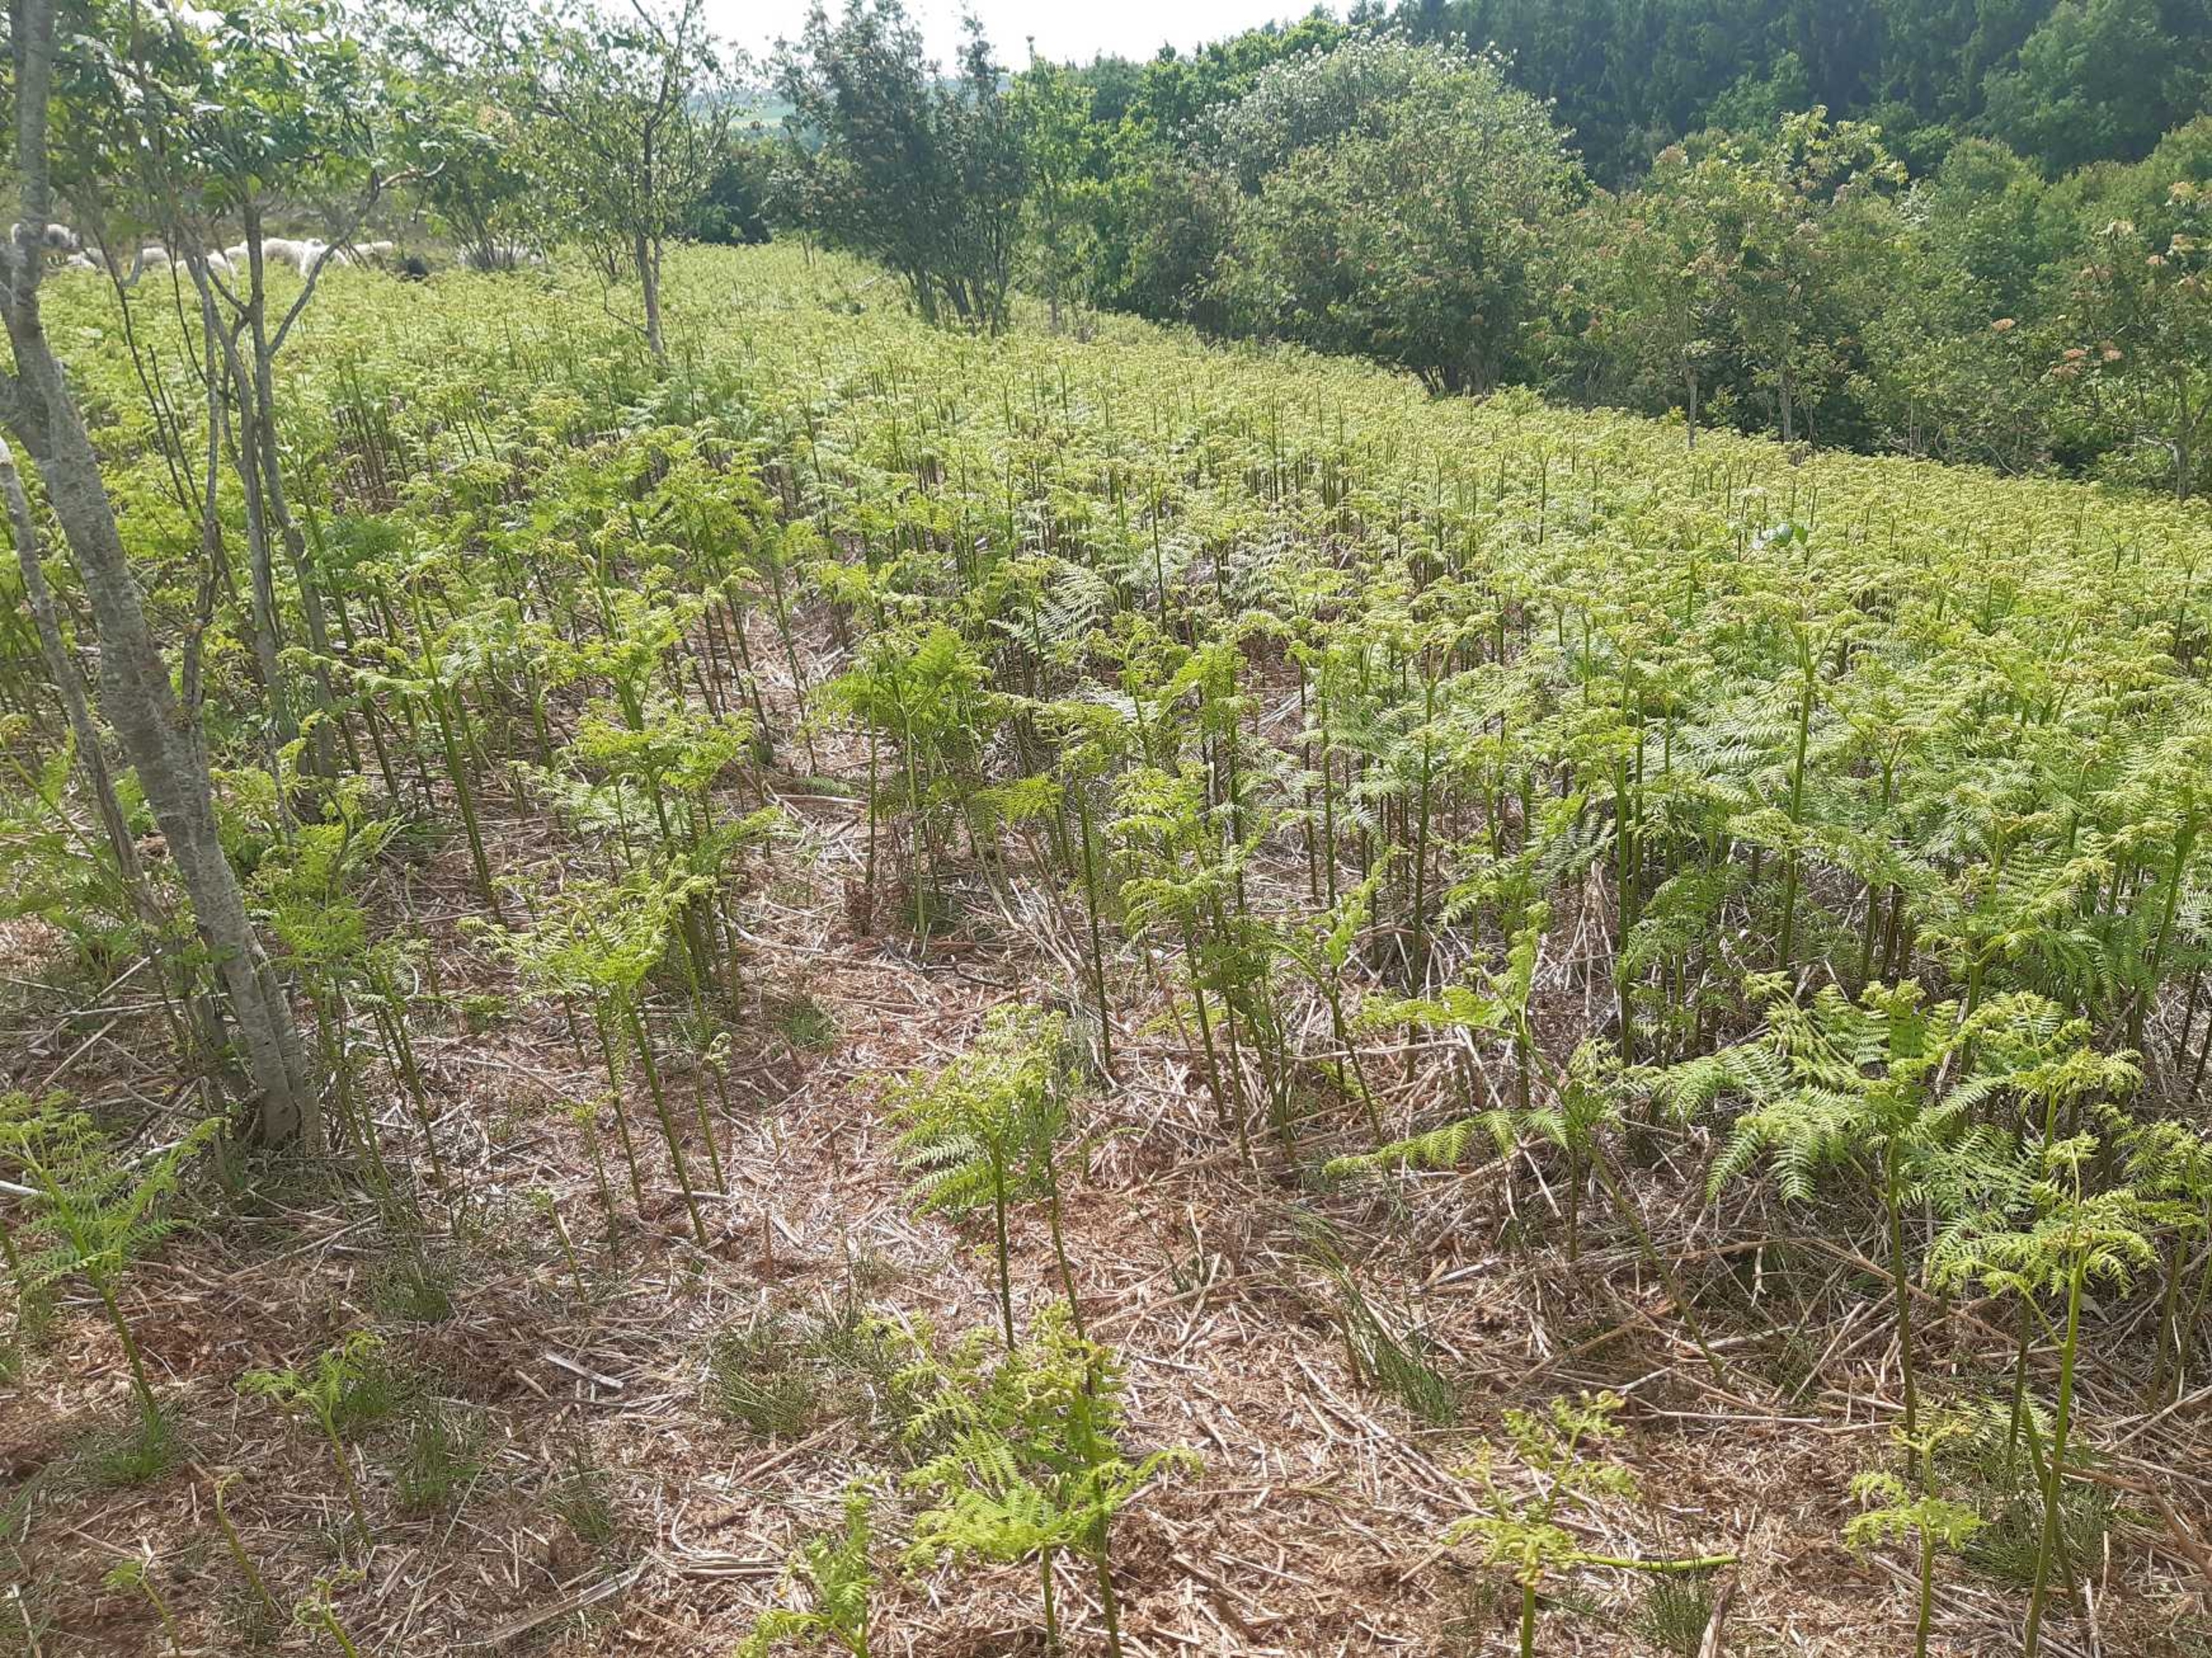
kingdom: Plantae
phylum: Tracheophyta
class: Polypodiopsida
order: Polypodiales
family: Dennstaedtiaceae
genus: Pteridium
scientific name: Pteridium aquilinum
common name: Ørnebregne
